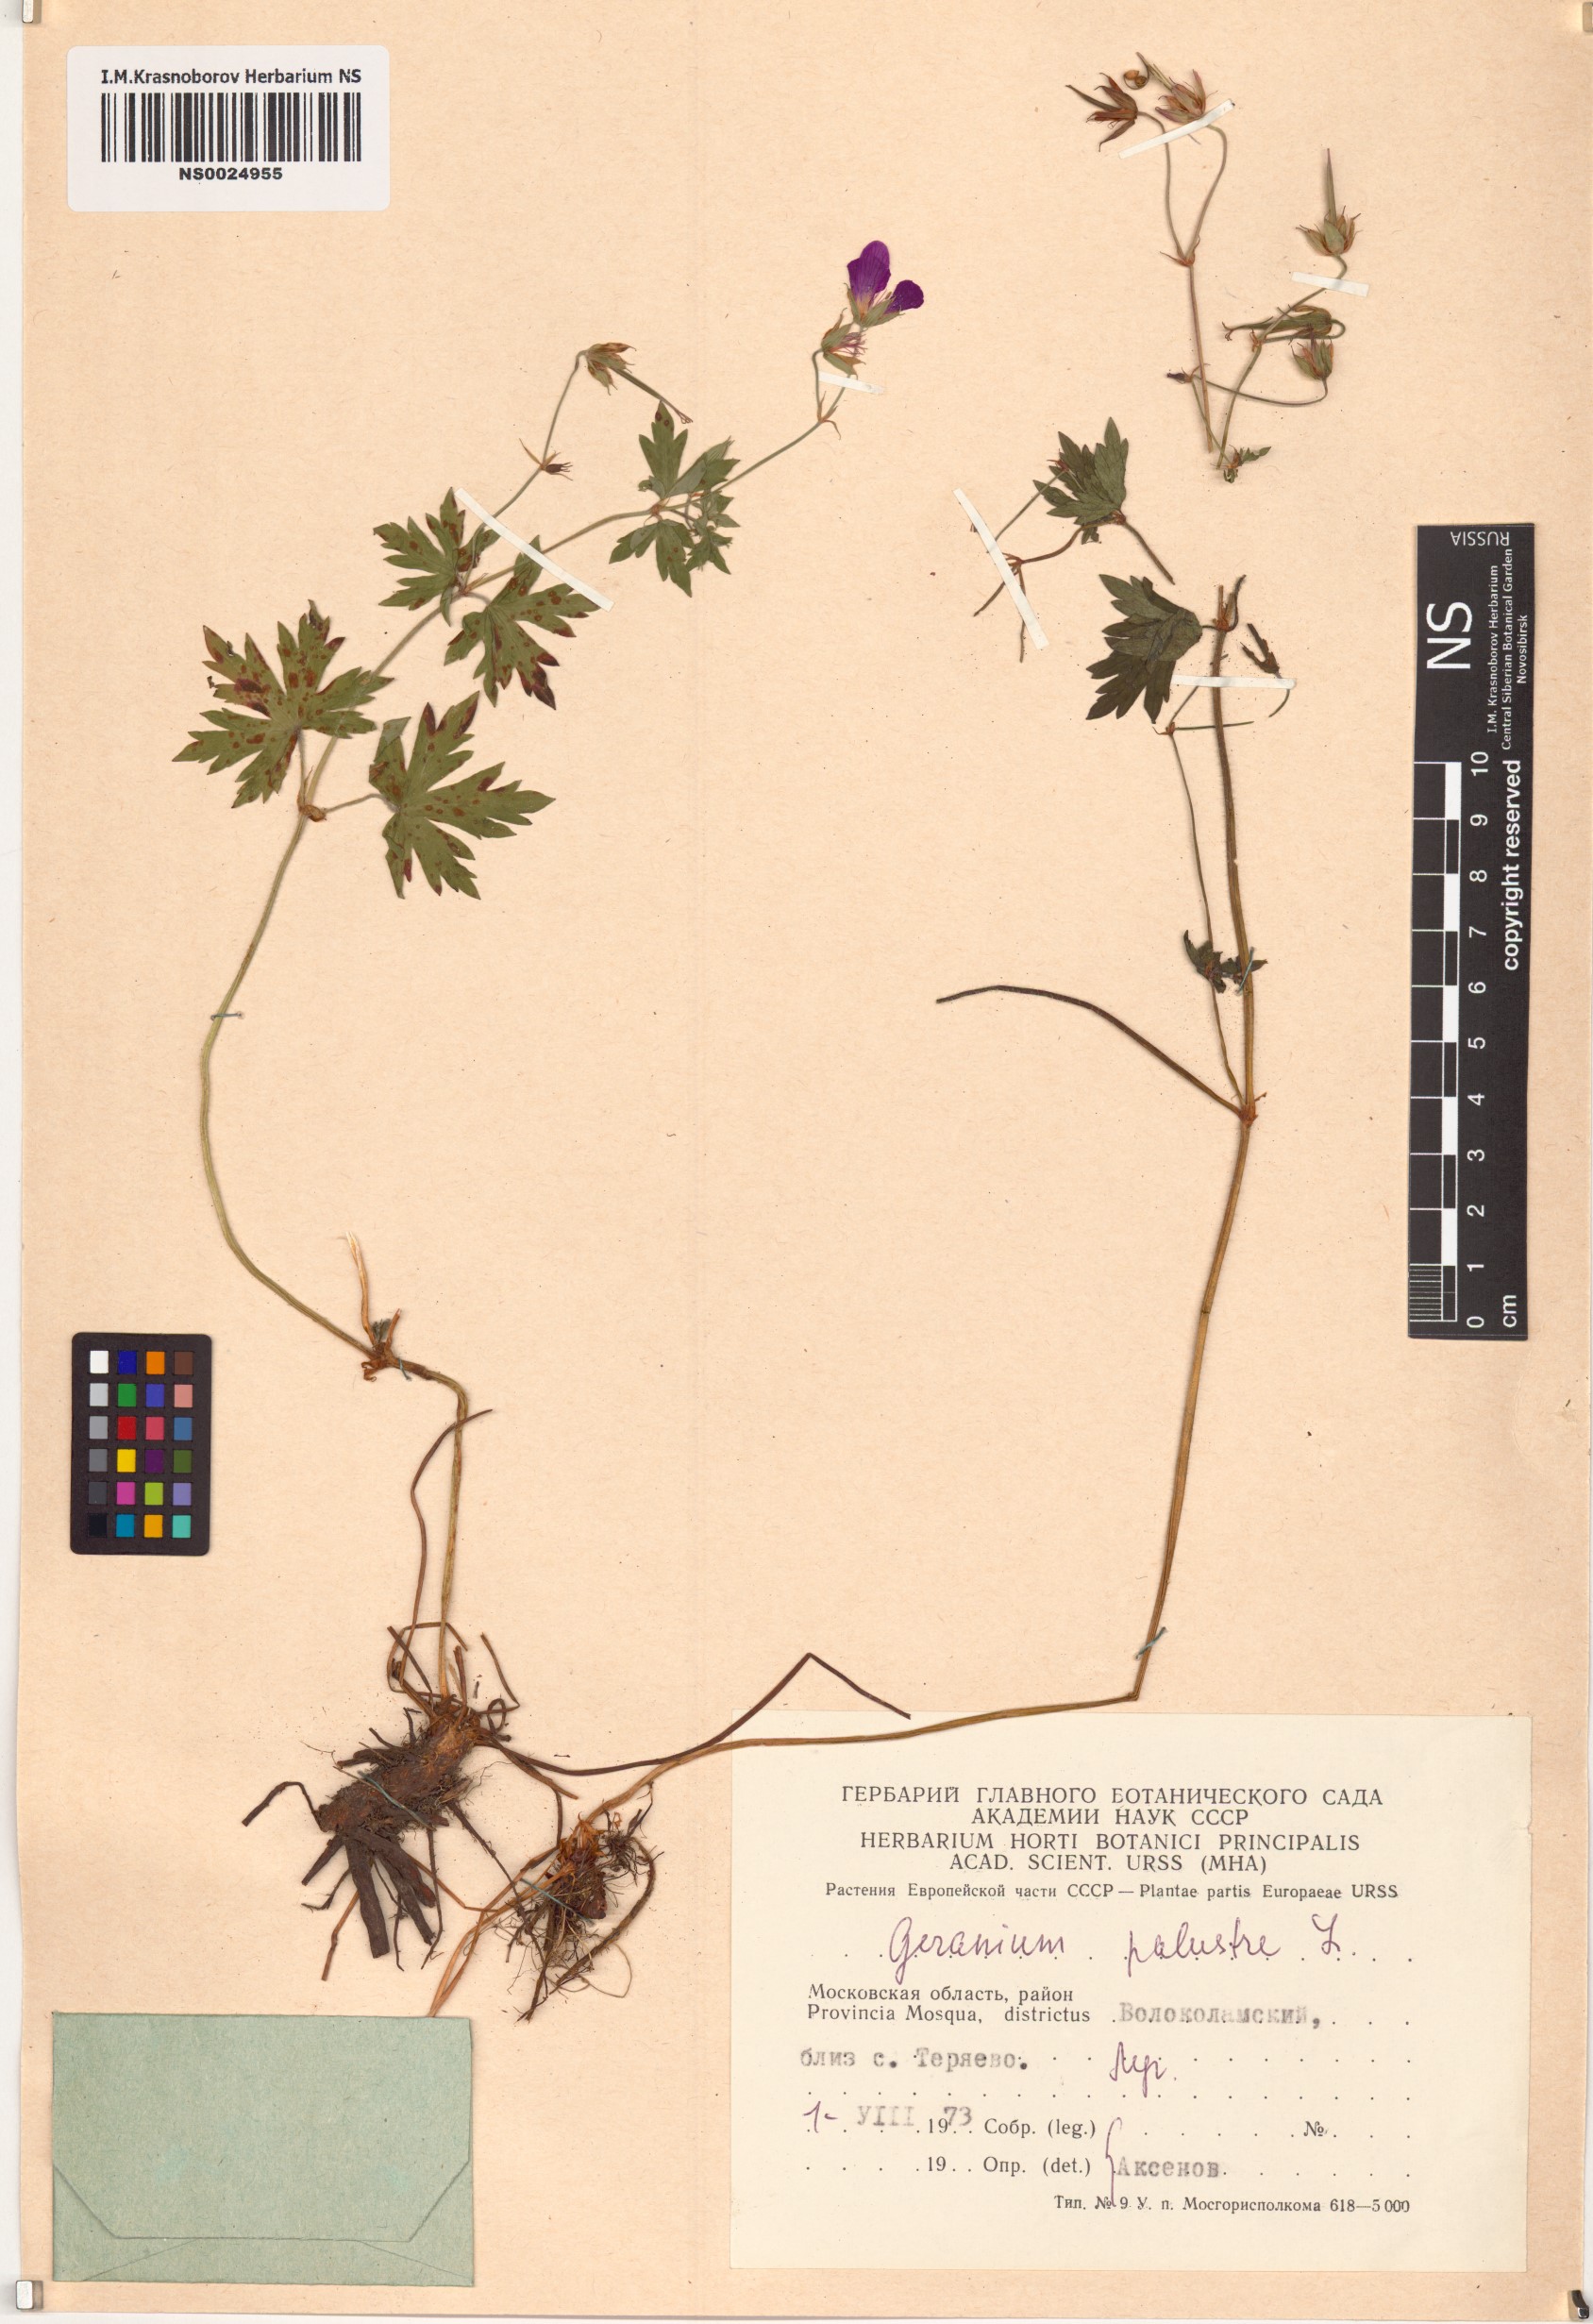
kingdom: Plantae
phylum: Tracheophyta
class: Magnoliopsida
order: Geraniales
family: Geraniaceae
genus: Geranium
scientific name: Geranium palustre
